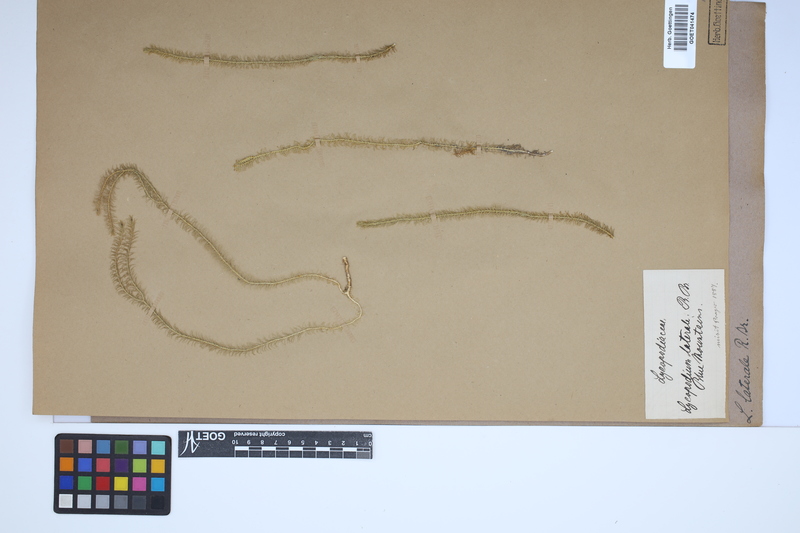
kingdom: Plantae
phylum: Tracheophyta
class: Lycopodiopsida
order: Lycopodiales
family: Lycopodiaceae
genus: Lateristachys
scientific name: Lateristachys lateralis
